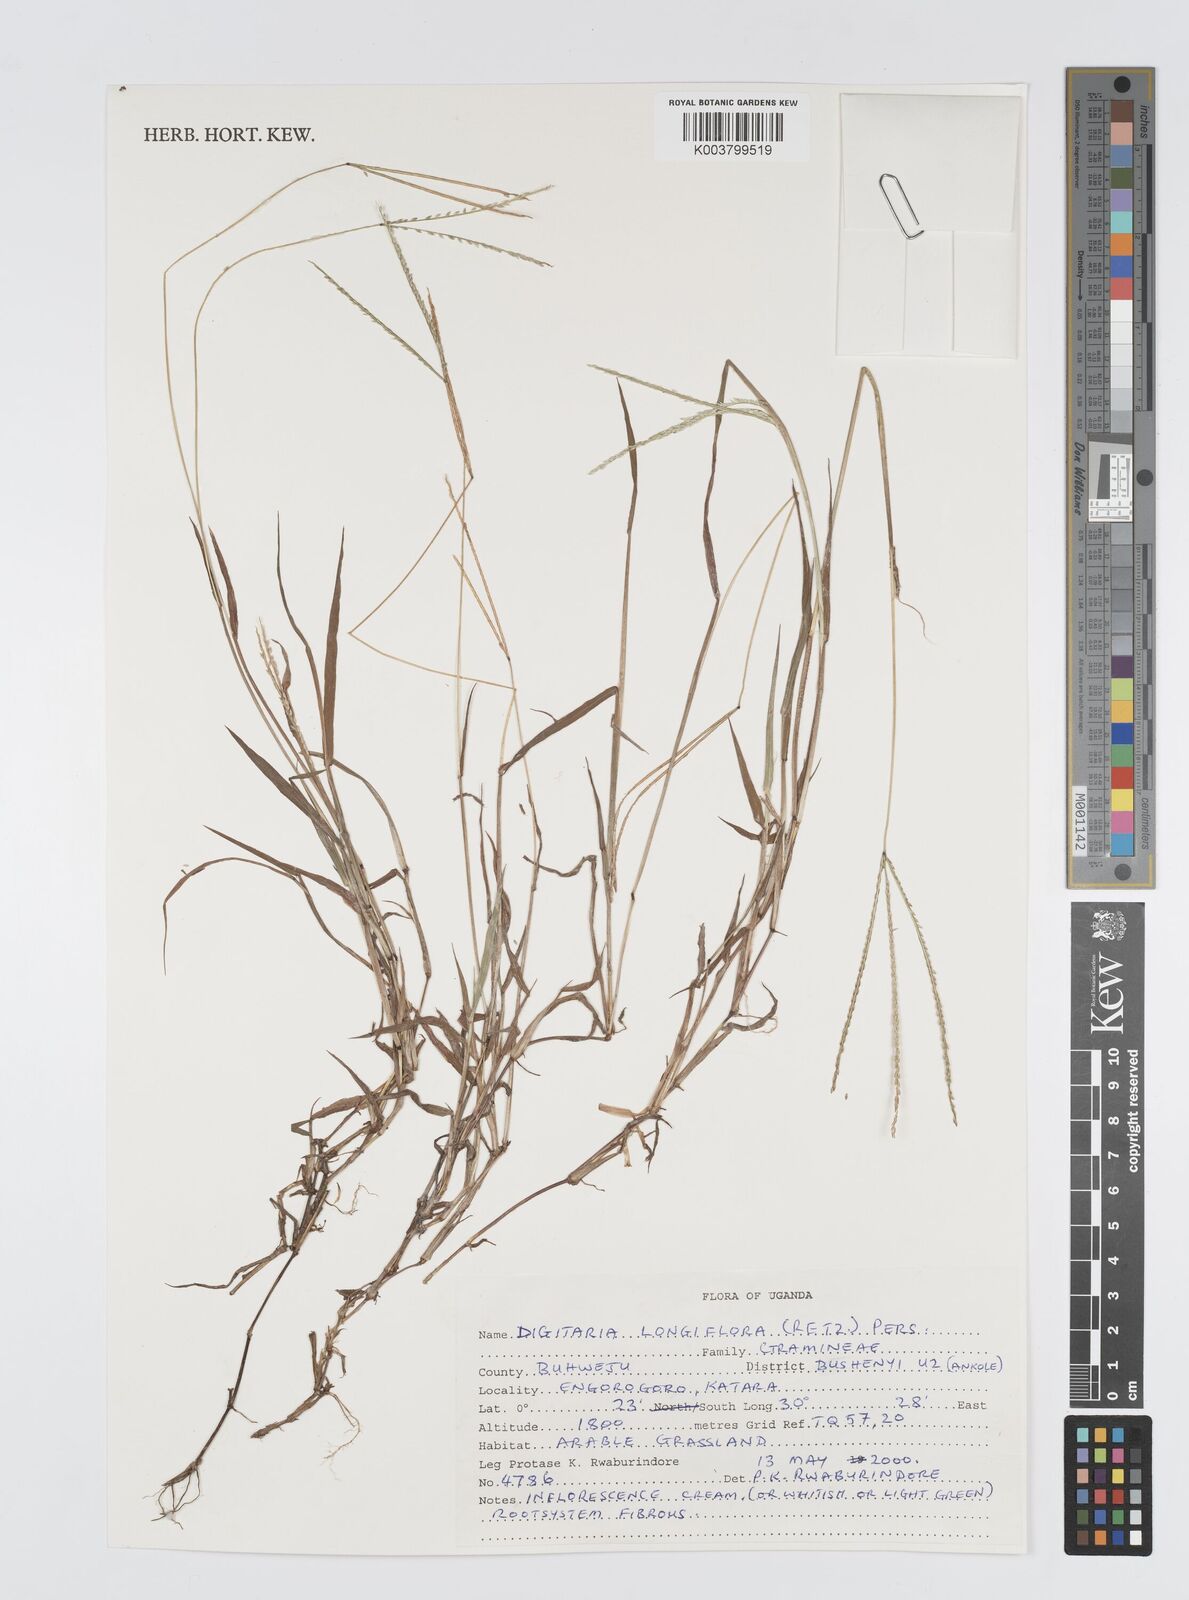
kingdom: Plantae
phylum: Tracheophyta
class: Liliopsida
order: Poales
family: Poaceae
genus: Digitaria
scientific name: Digitaria longiflora
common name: Wire crabgrass
